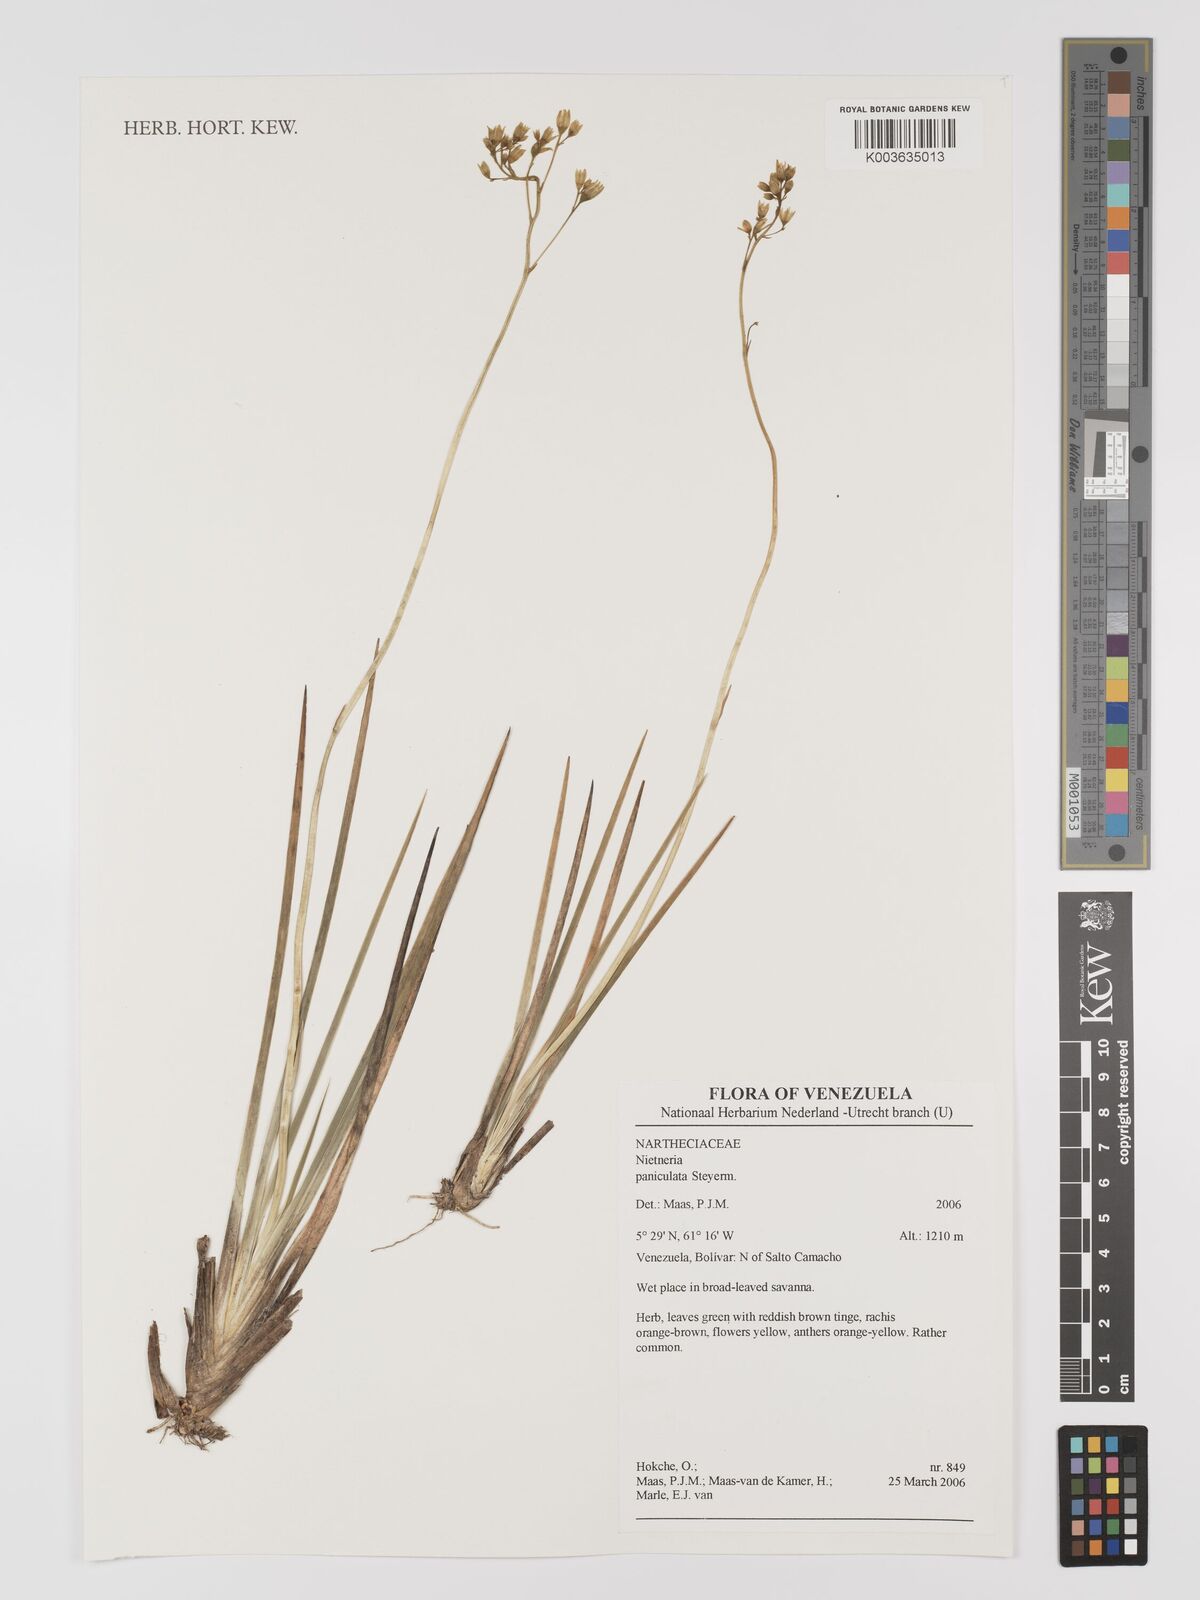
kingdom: Plantae
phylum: Tracheophyta
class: Liliopsida
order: Dioscoreales
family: Nartheciaceae
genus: Nietneria
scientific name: Nietneria paniculata
